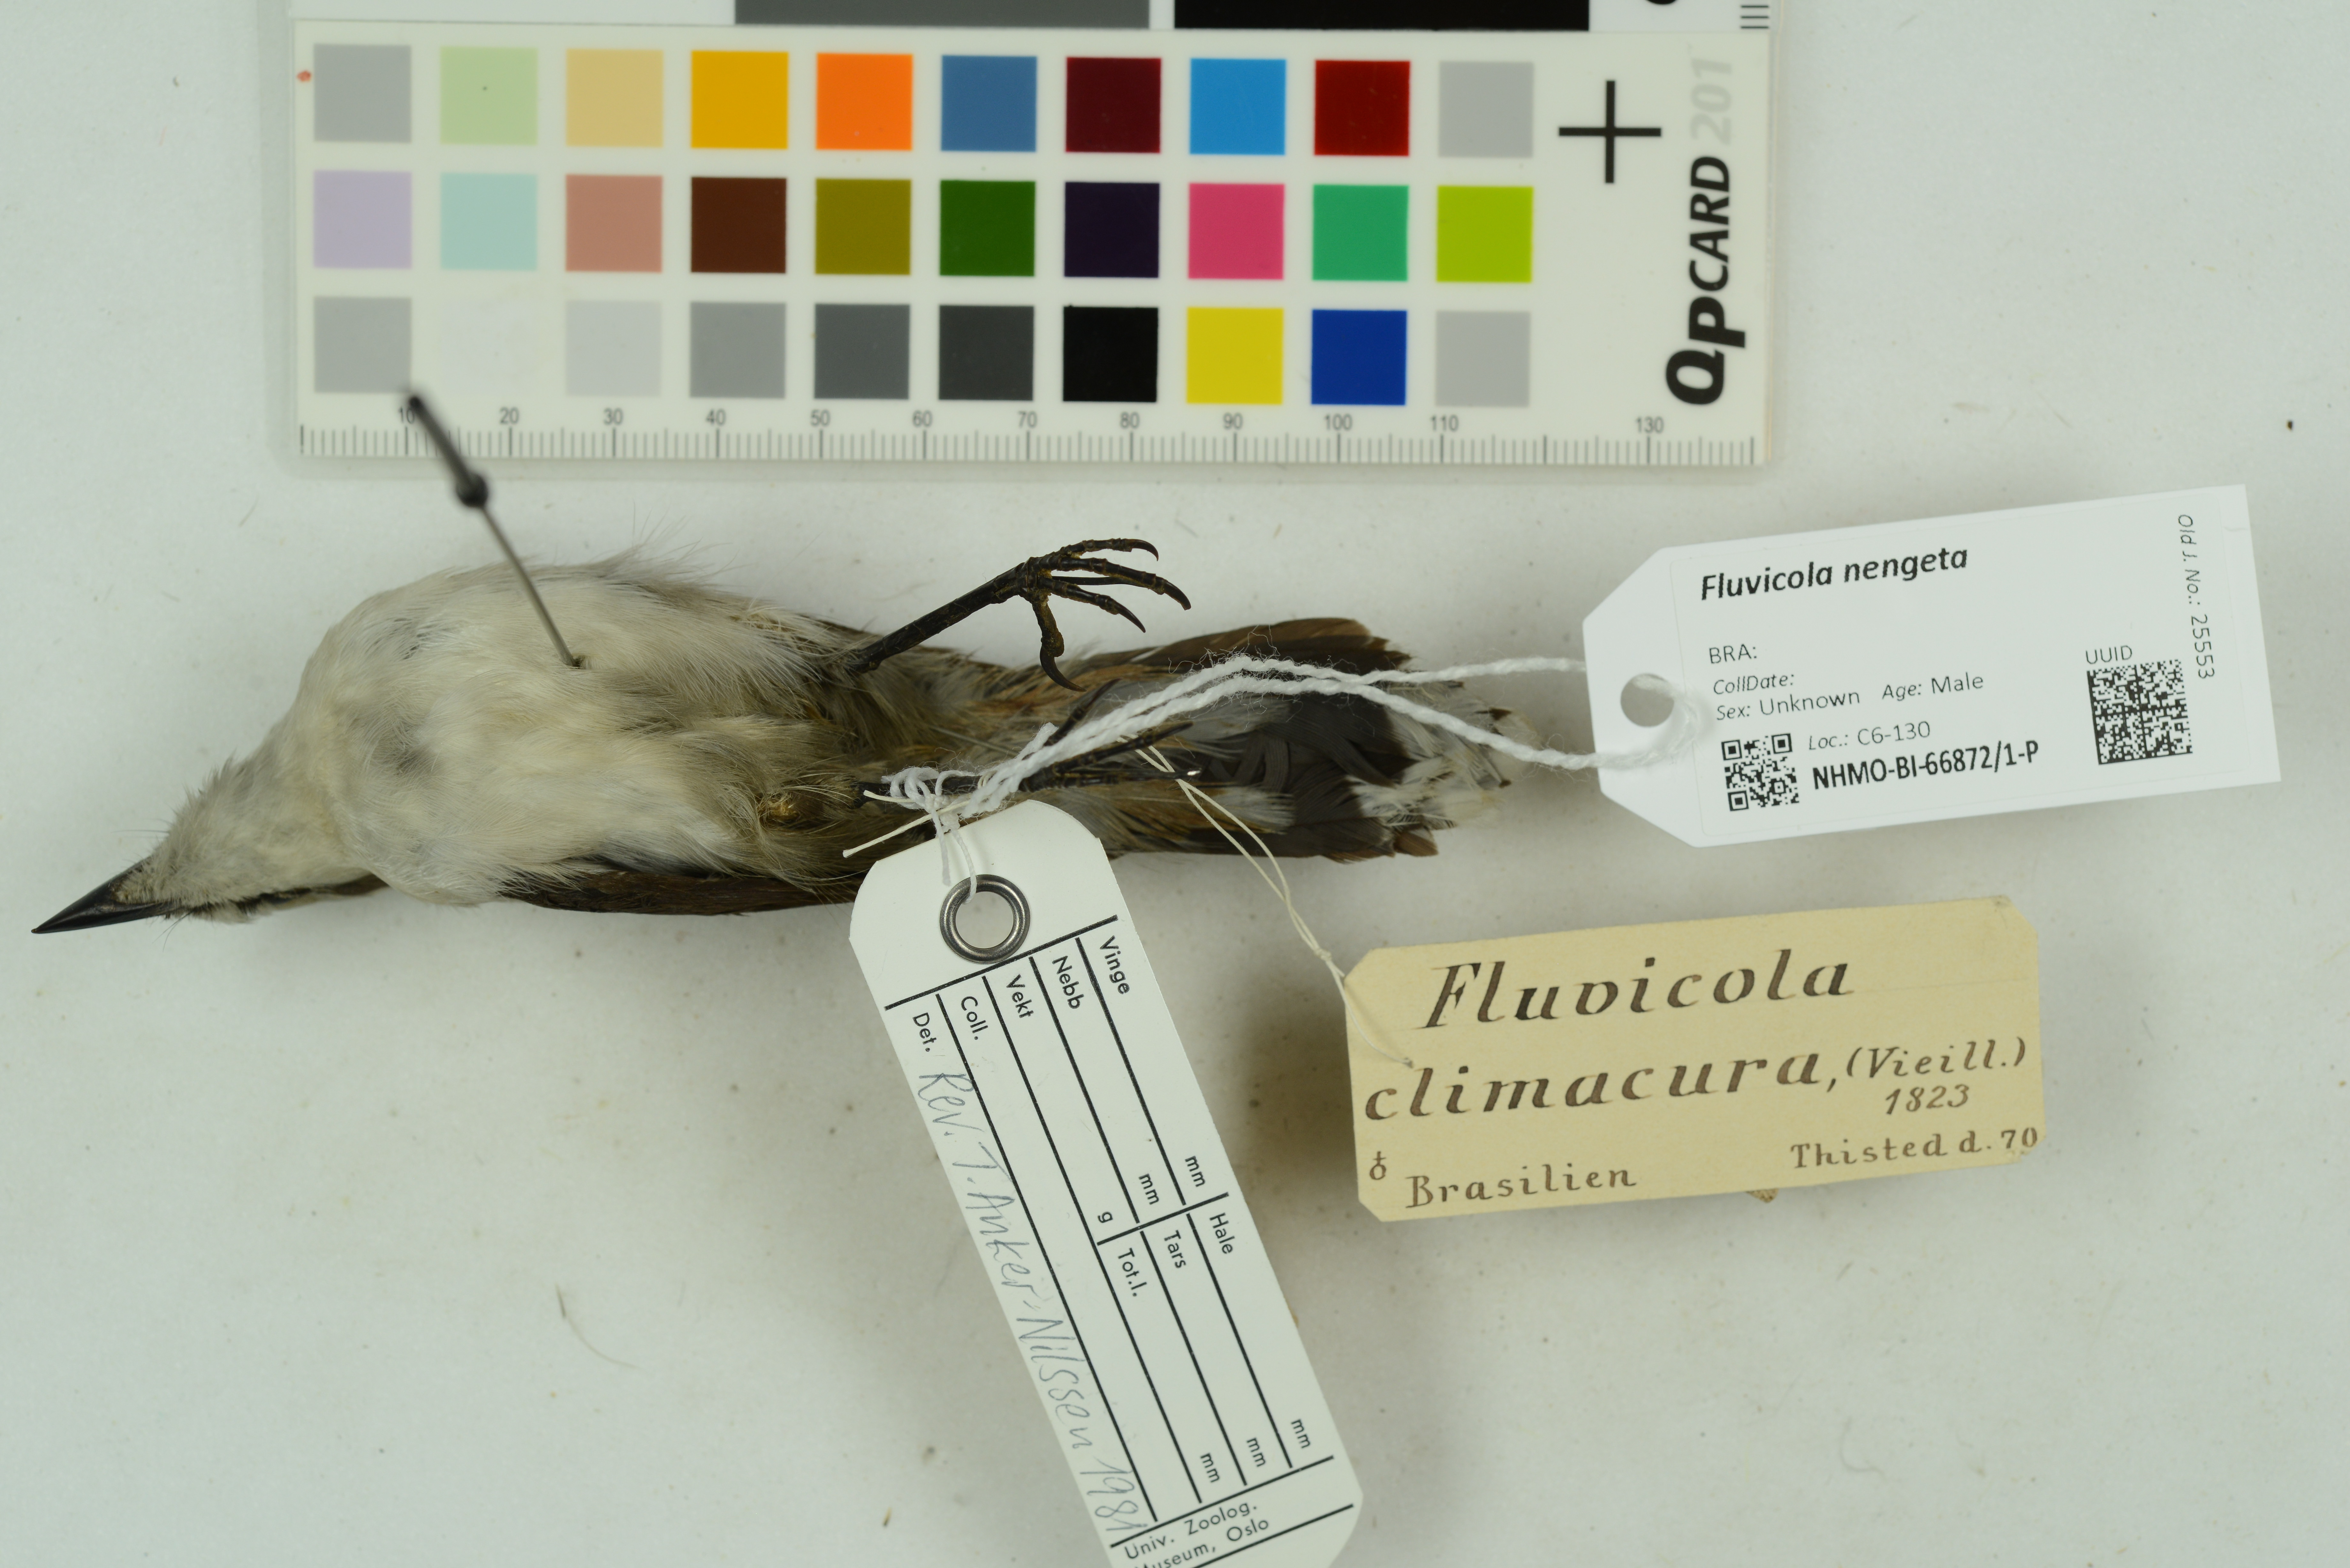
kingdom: Animalia
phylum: Chordata
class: Aves
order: Passeriformes
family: Tyrannidae
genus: Fluvicola
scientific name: Fluvicola nengeta
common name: Masked water tyrant
